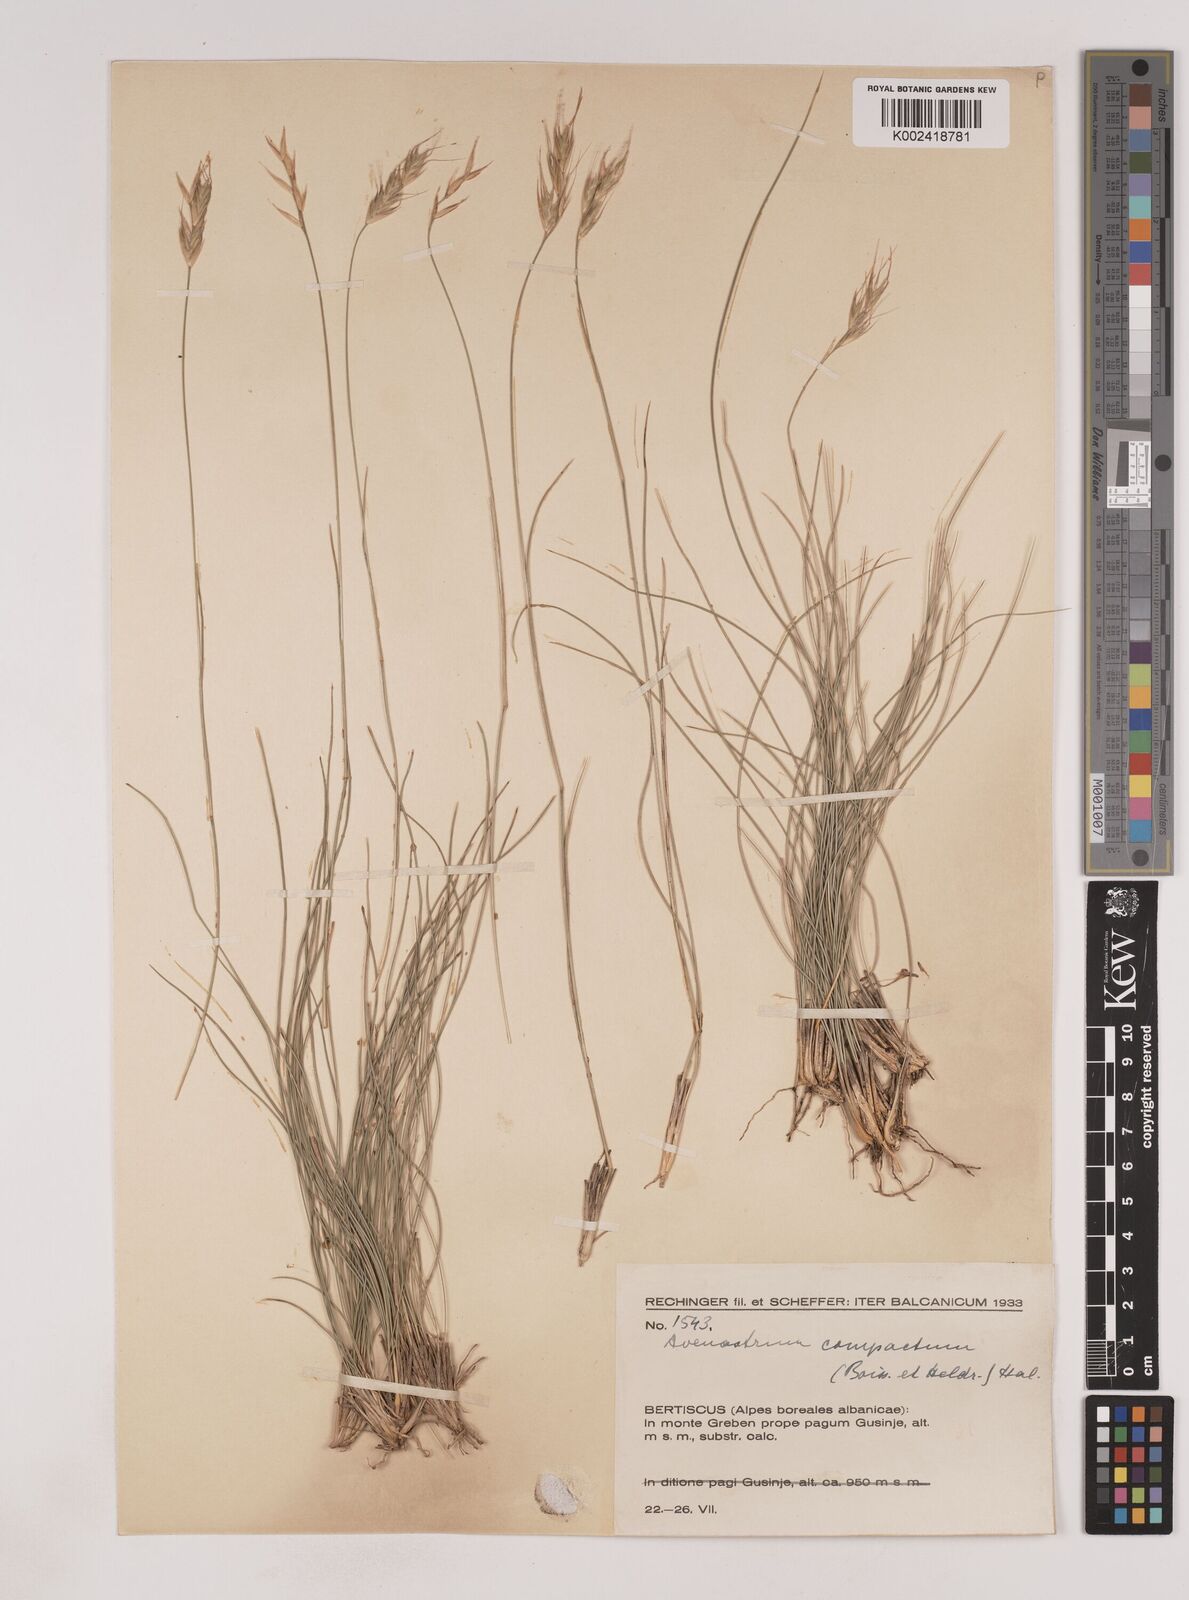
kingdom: Plantae
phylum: Tracheophyta
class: Liliopsida
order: Poales
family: Poaceae
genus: Danthoniastrum
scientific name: Danthoniastrum compactum
